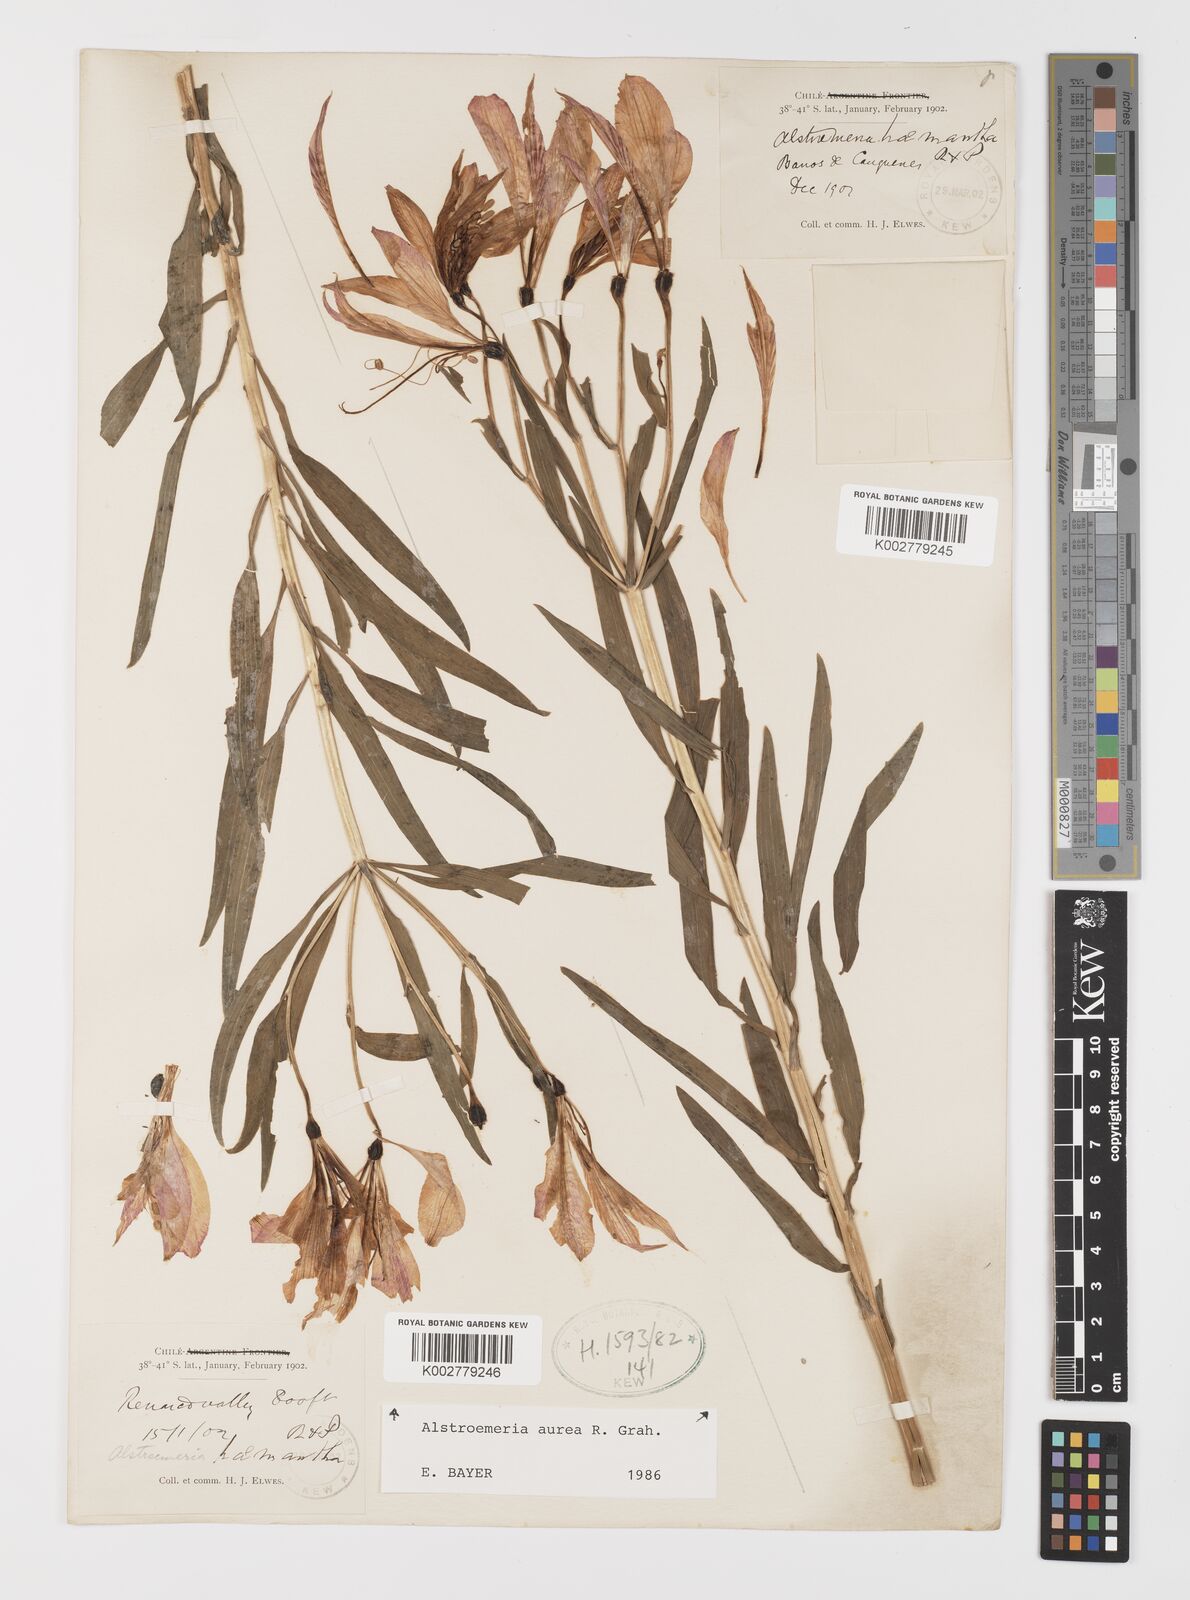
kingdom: Plantae
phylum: Tracheophyta
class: Liliopsida
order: Liliales
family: Alstroemeriaceae
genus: Alstroemeria
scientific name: Alstroemeria aurea
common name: Peruvian lily
